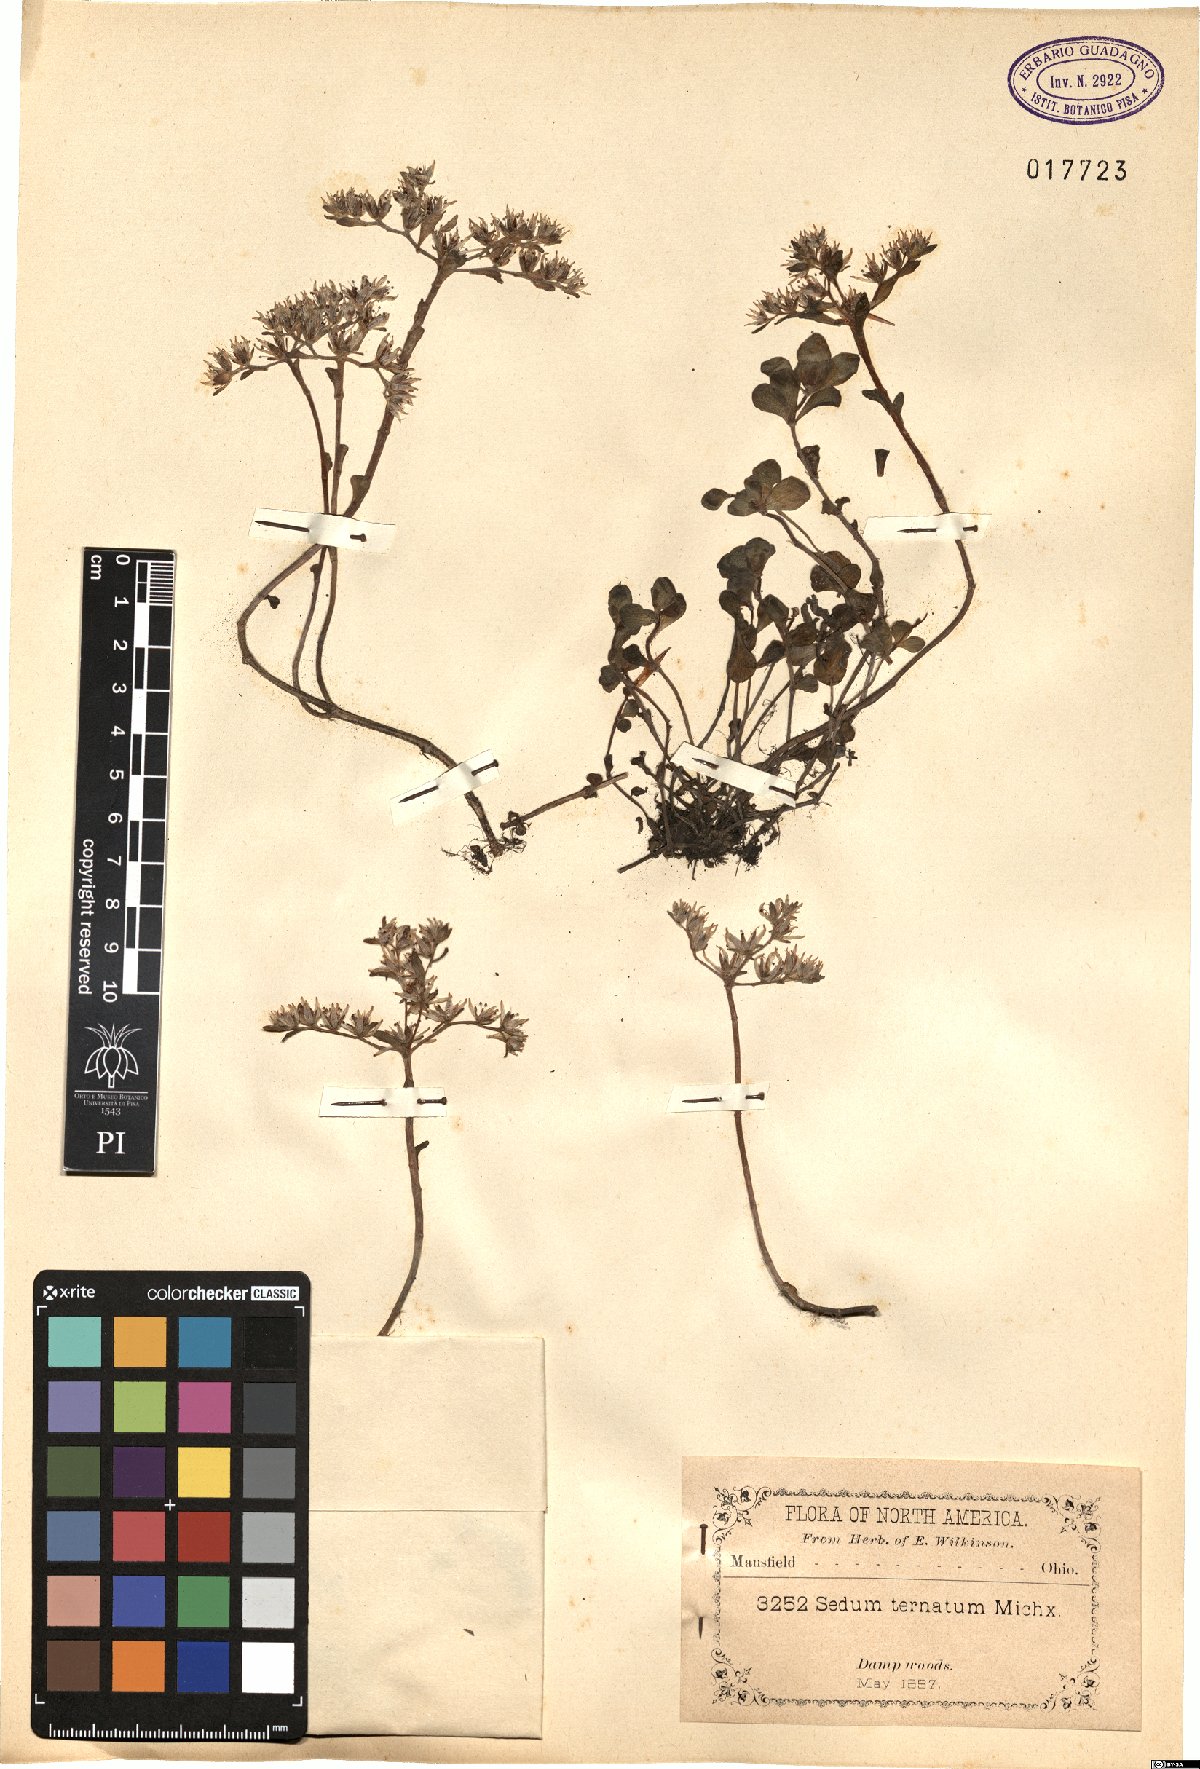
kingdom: Plantae
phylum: Tracheophyta
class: Magnoliopsida
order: Saxifragales
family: Crassulaceae
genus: Sedum
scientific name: Sedum ternatum
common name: Wild stonecrop
